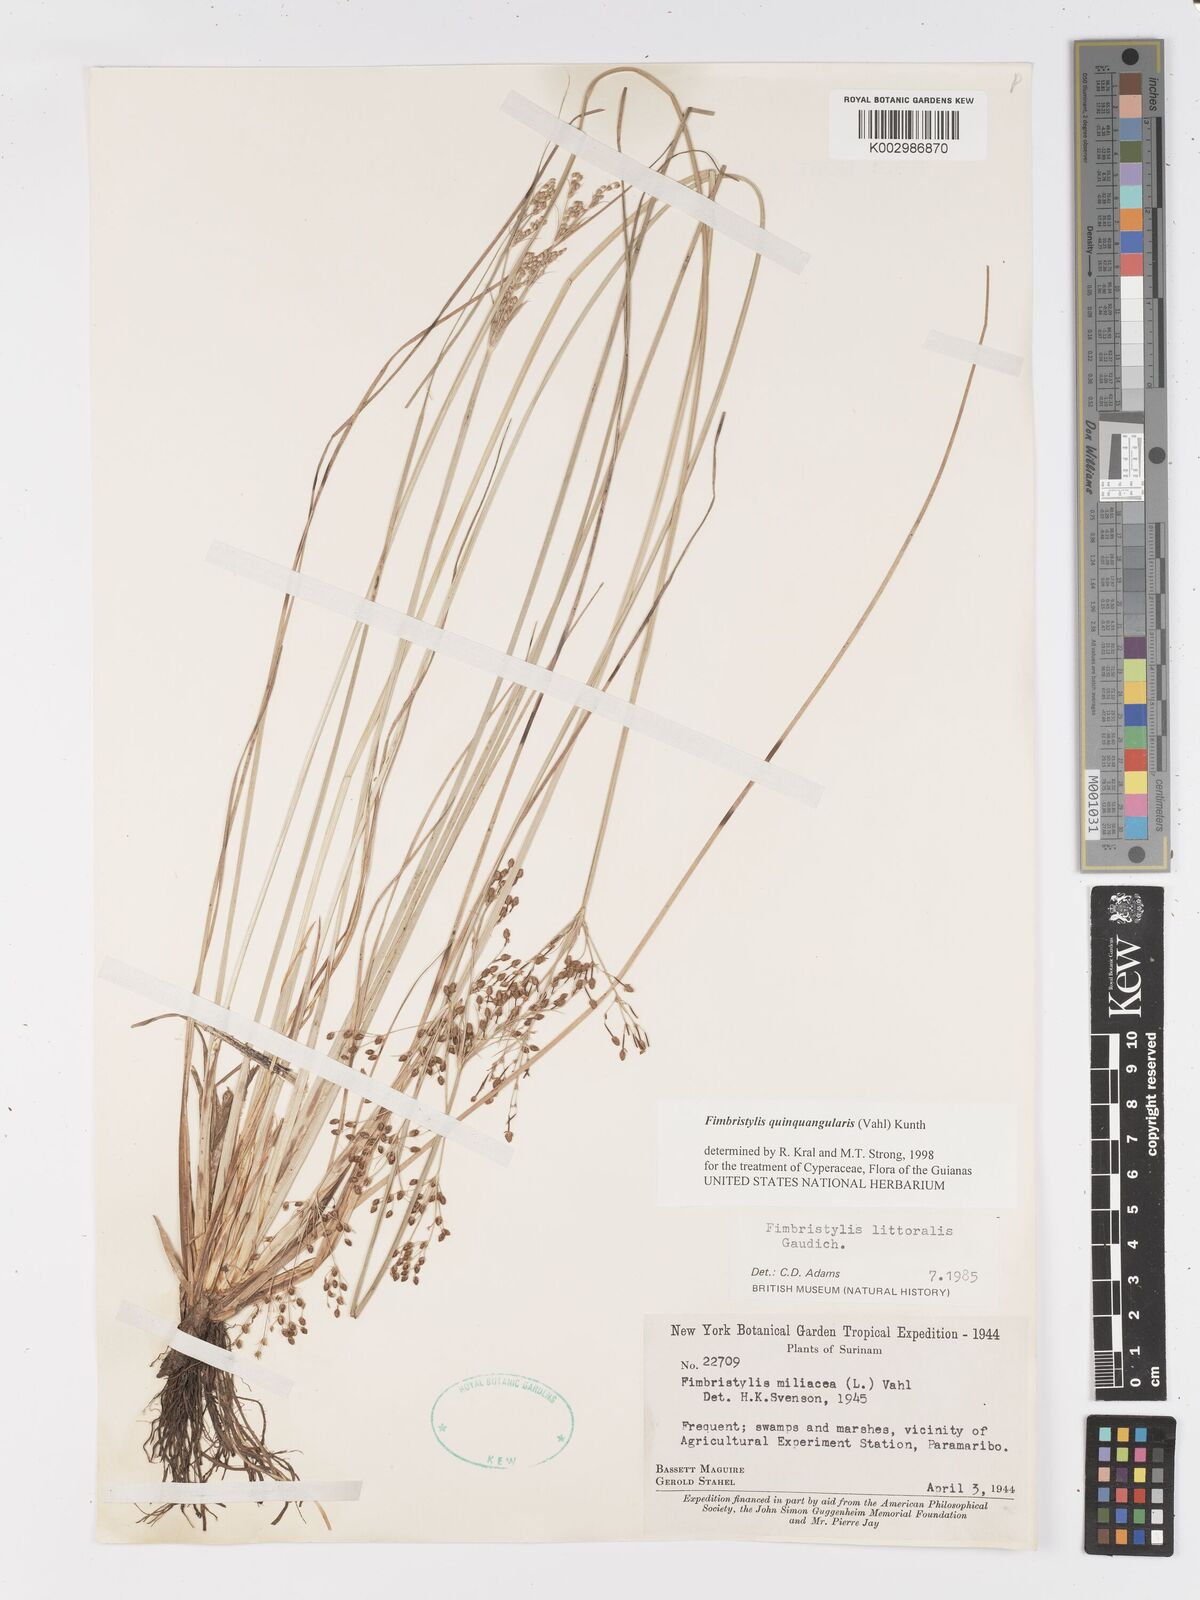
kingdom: Plantae
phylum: Tracheophyta
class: Liliopsida
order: Poales
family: Cyperaceae
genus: Fimbristylis
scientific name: Fimbristylis quinquangularis
